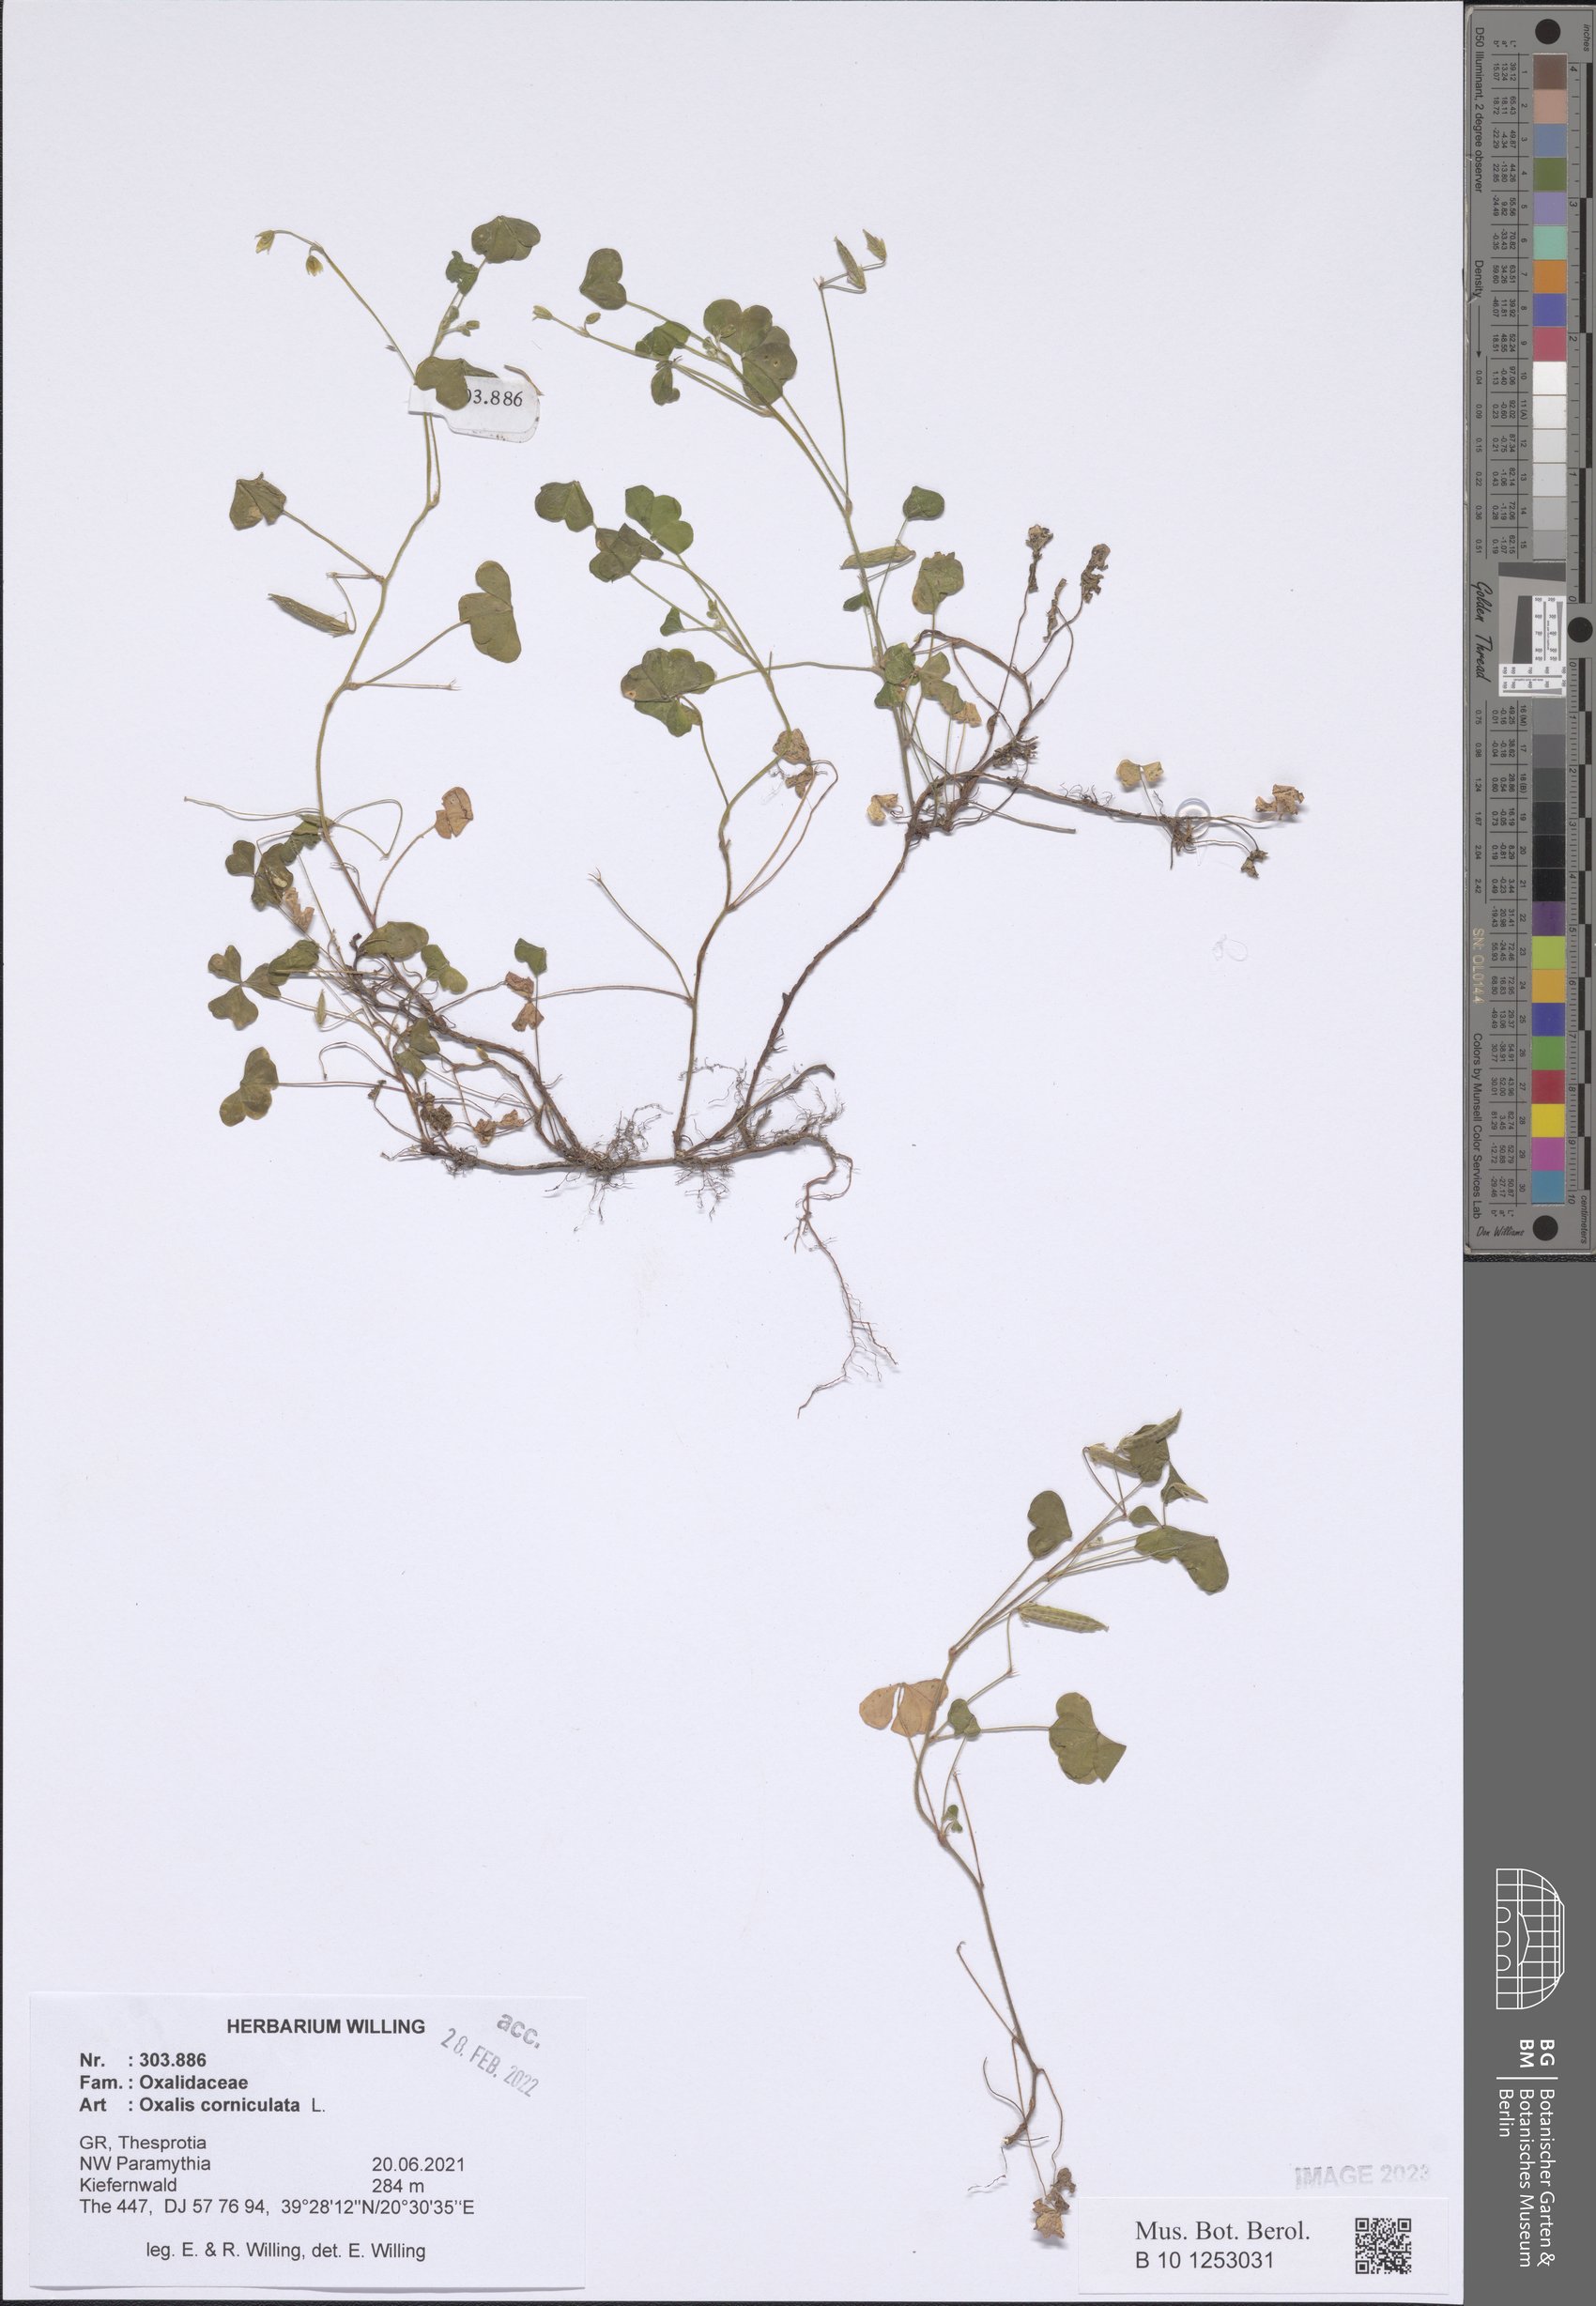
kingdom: Plantae
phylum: Tracheophyta
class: Magnoliopsida
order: Oxalidales
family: Oxalidaceae
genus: Oxalis
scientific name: Oxalis corniculata
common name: Procumbent yellow-sorrel
